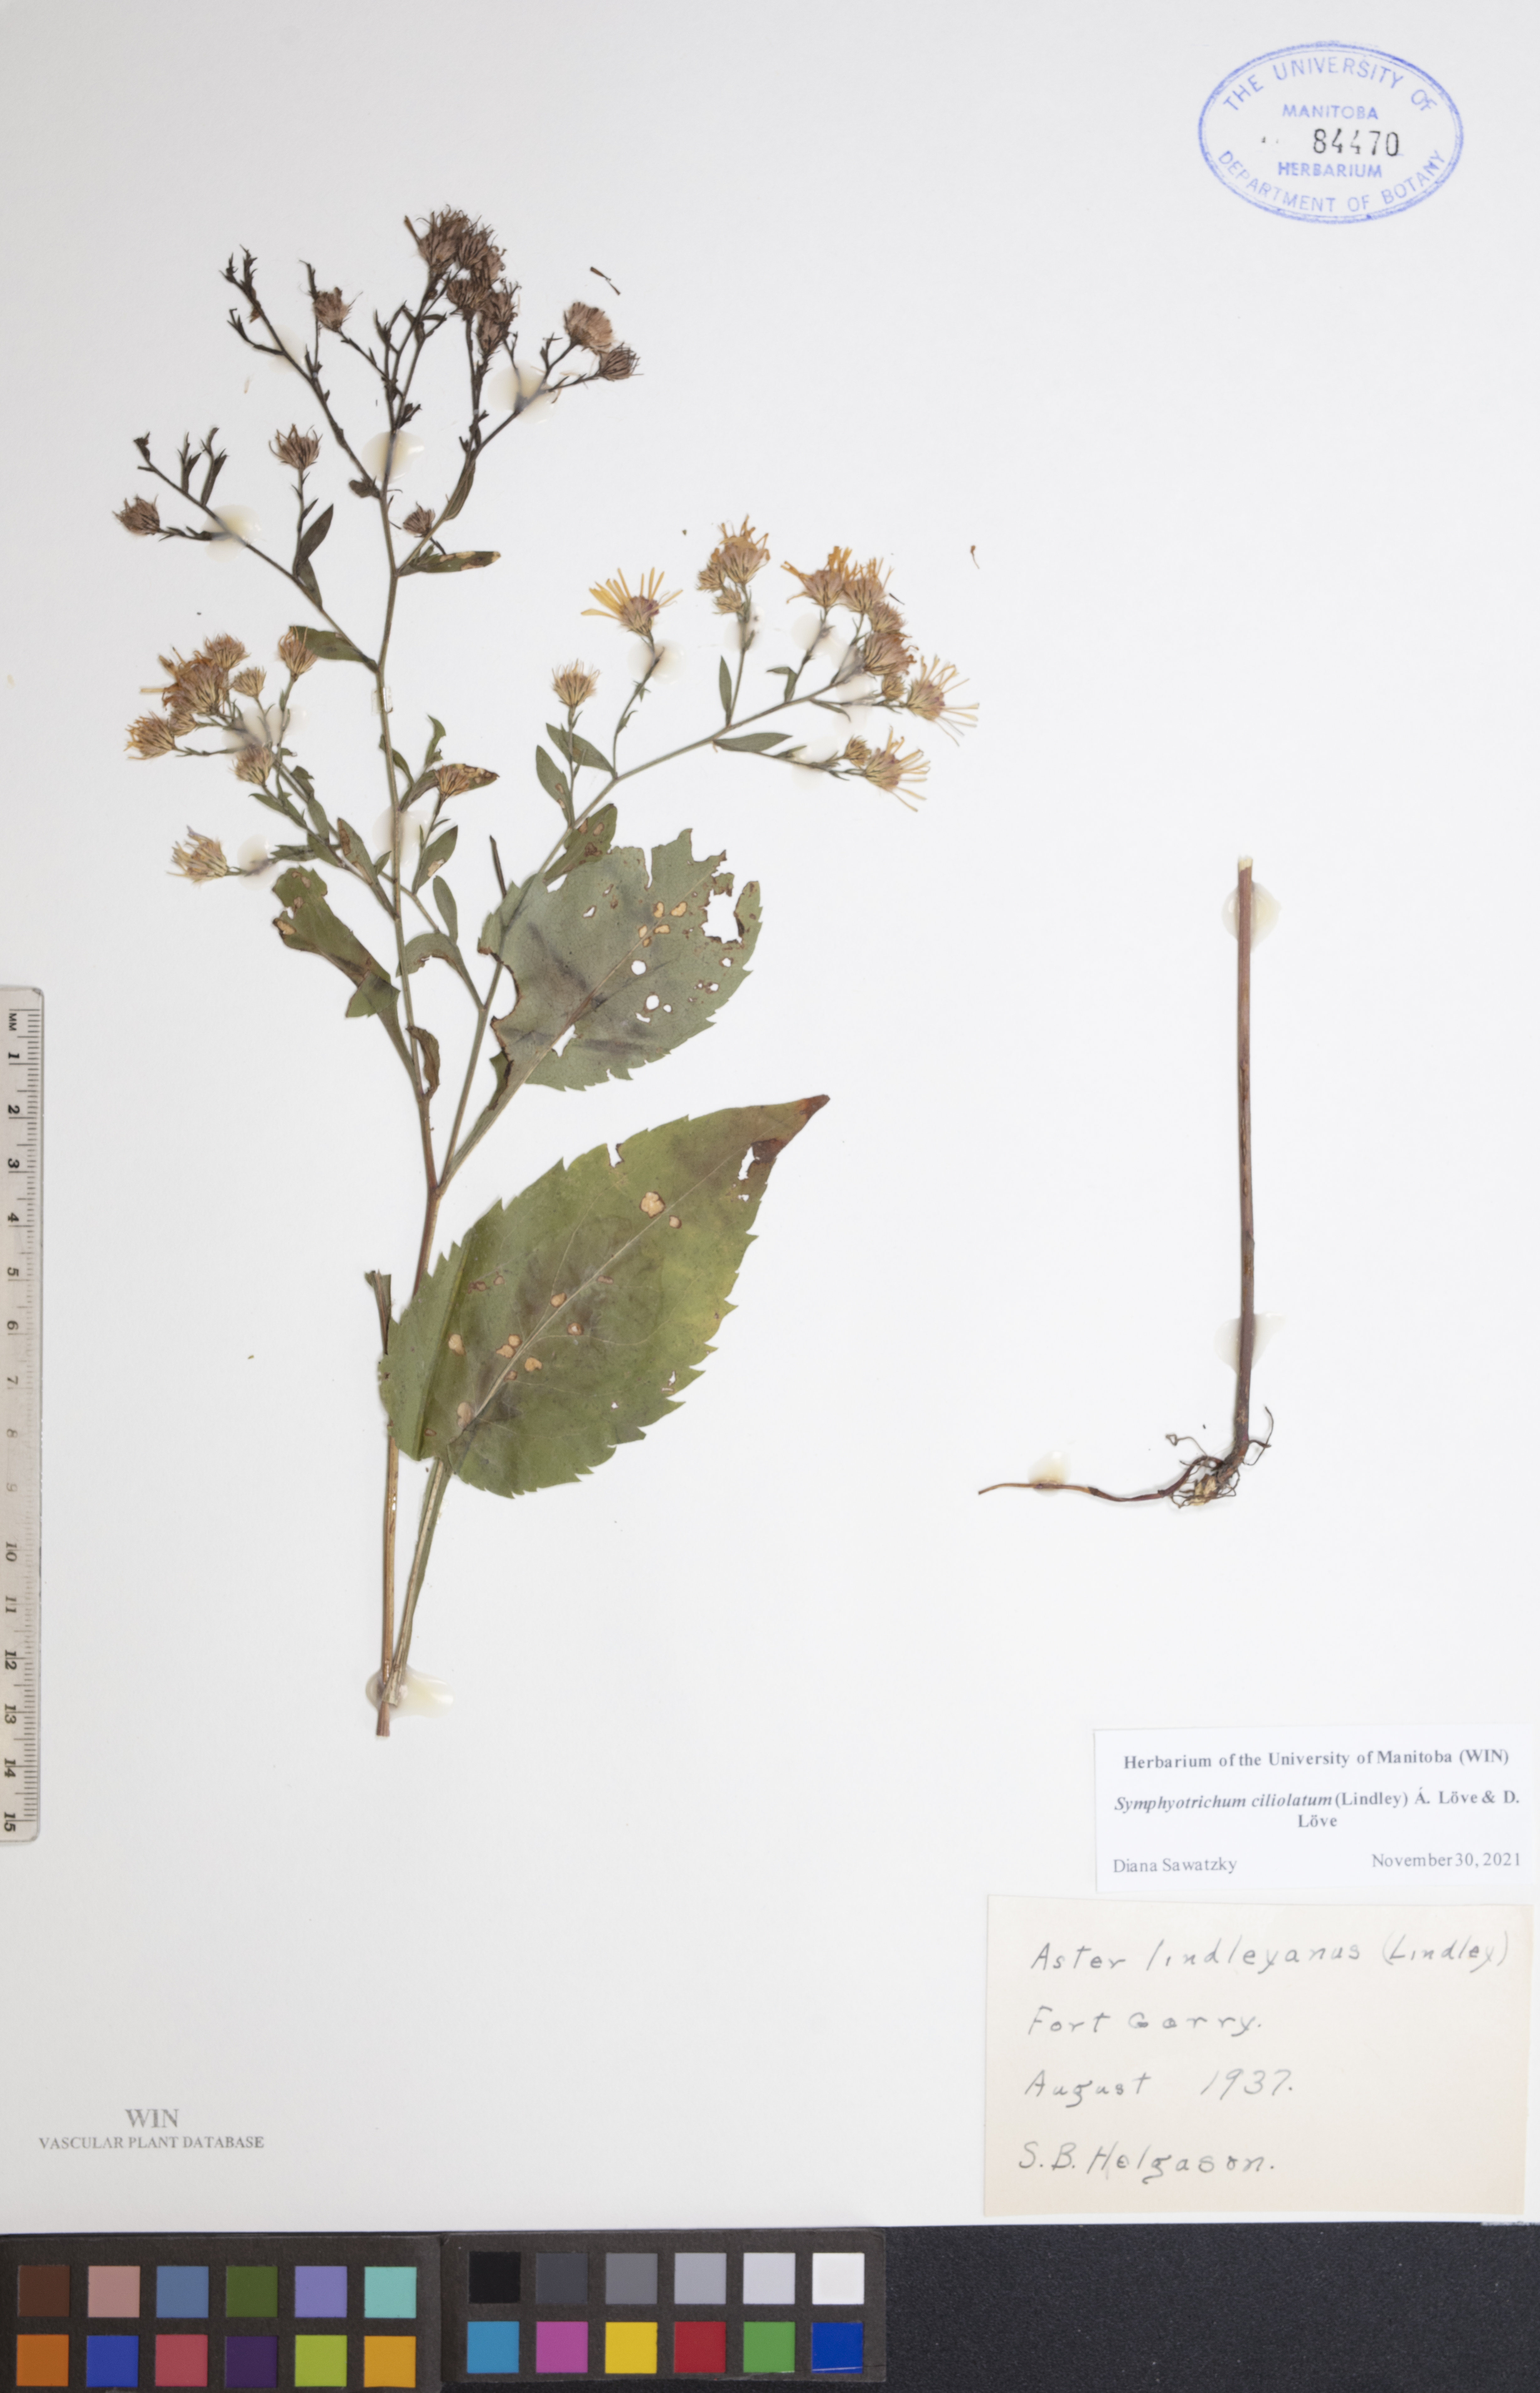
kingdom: Plantae
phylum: Tracheophyta
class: Magnoliopsida
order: Asterales
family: Asteraceae
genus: Symphyotrichum
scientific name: Symphyotrichum ciliolatum
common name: Fringed blue aster
